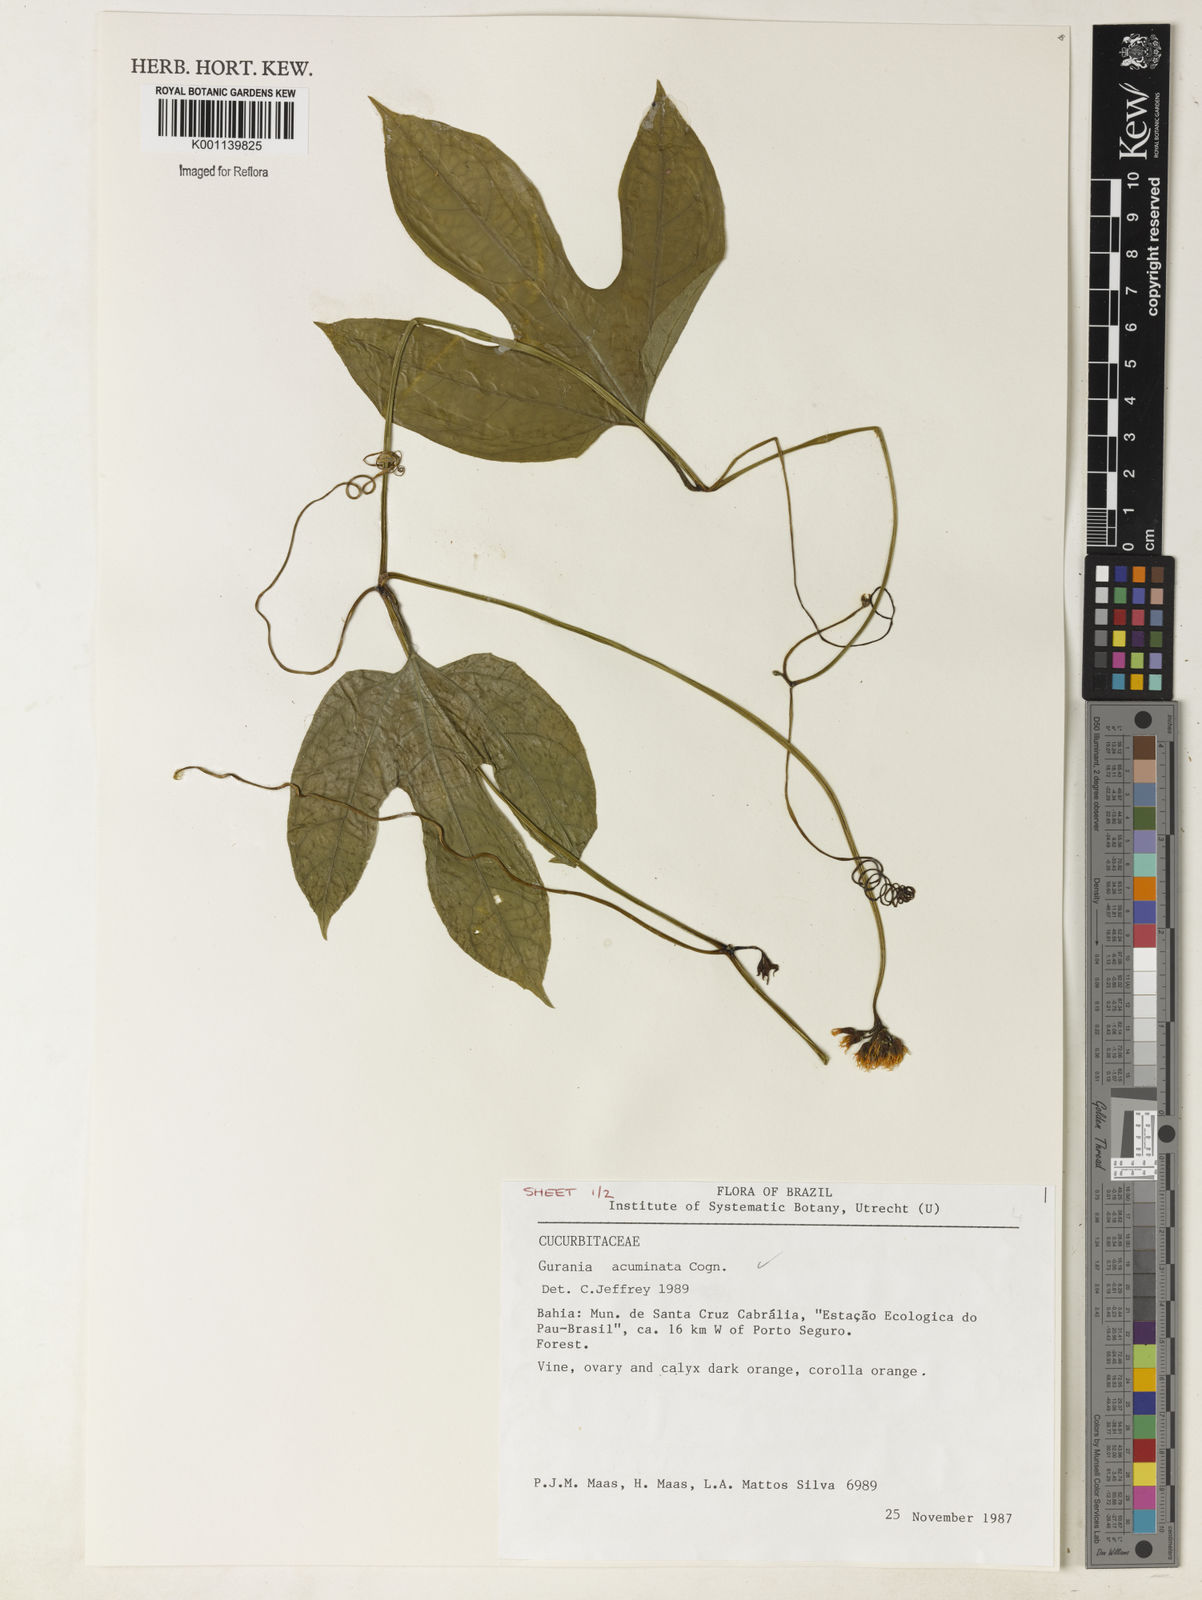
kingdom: Plantae
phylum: Tracheophyta
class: Magnoliopsida
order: Cucurbitales
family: Cucurbitaceae
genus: Gurania
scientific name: Gurania acuminata
